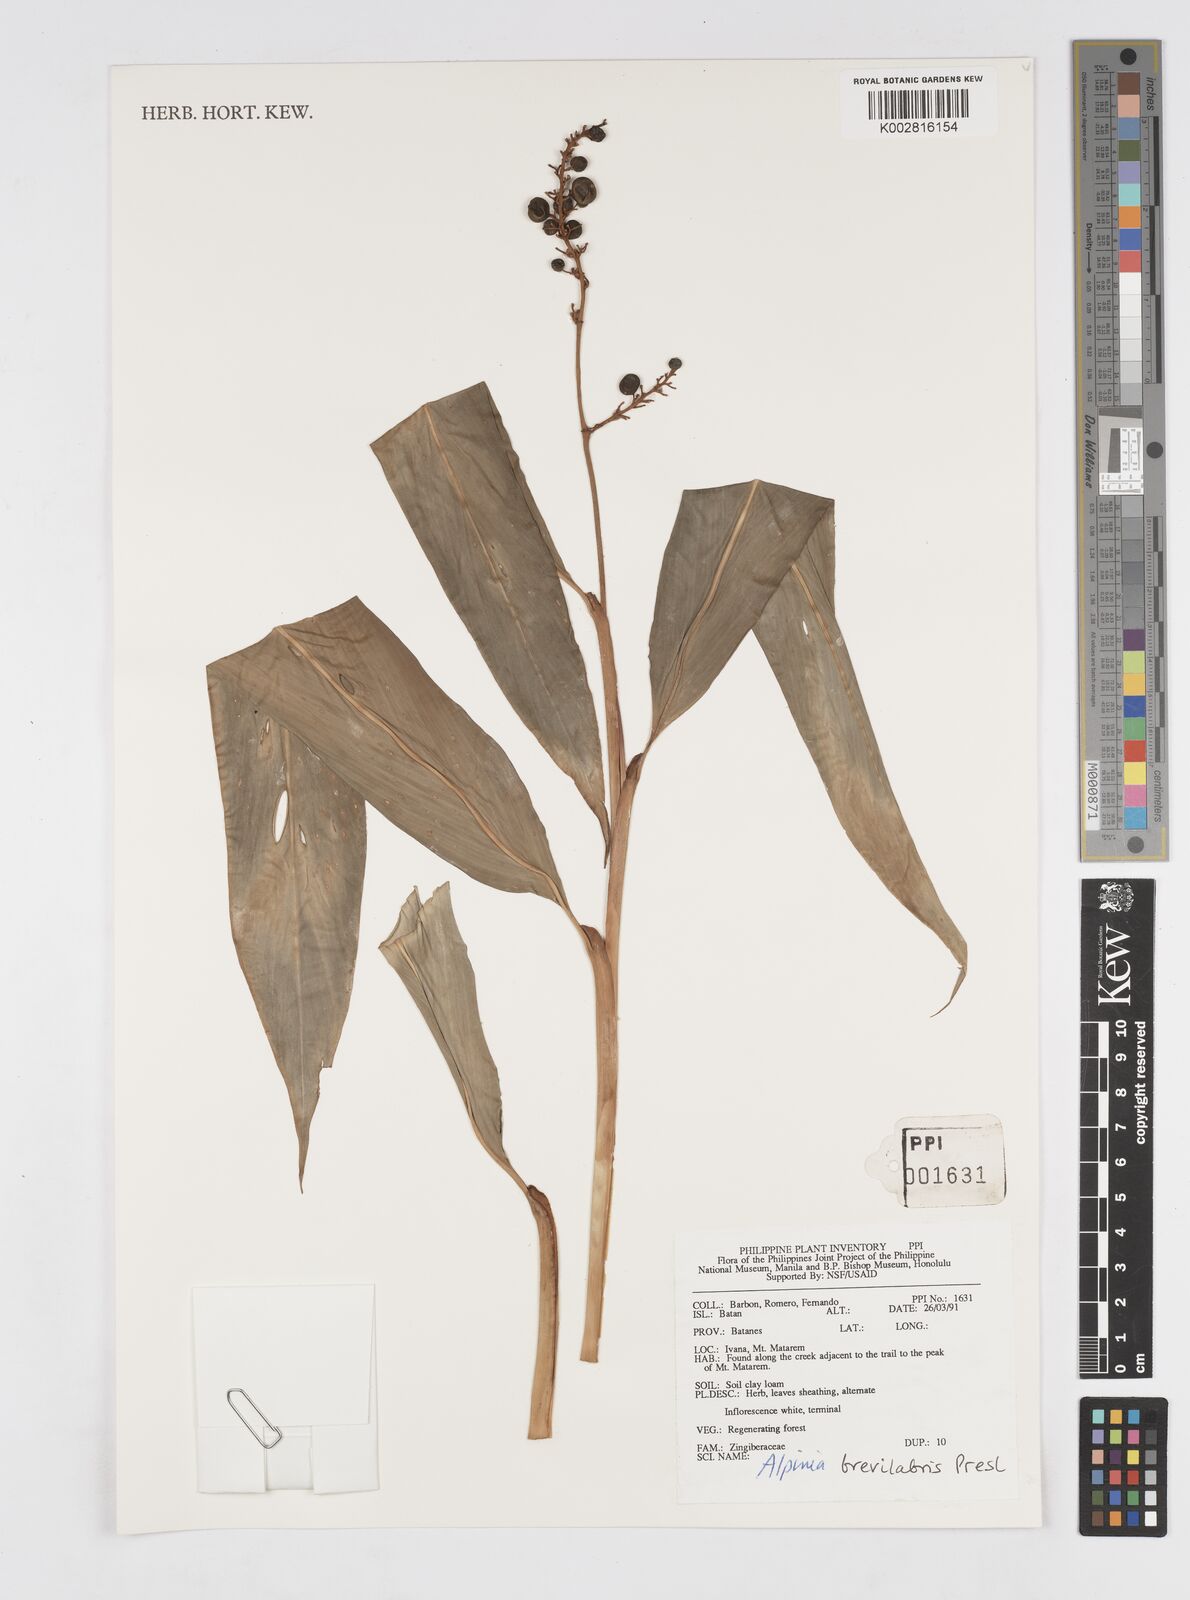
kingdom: Plantae
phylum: Tracheophyta
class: Liliopsida
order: Zingiberales
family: Zingiberaceae
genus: Alpinia
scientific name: Alpinia brevilabris
